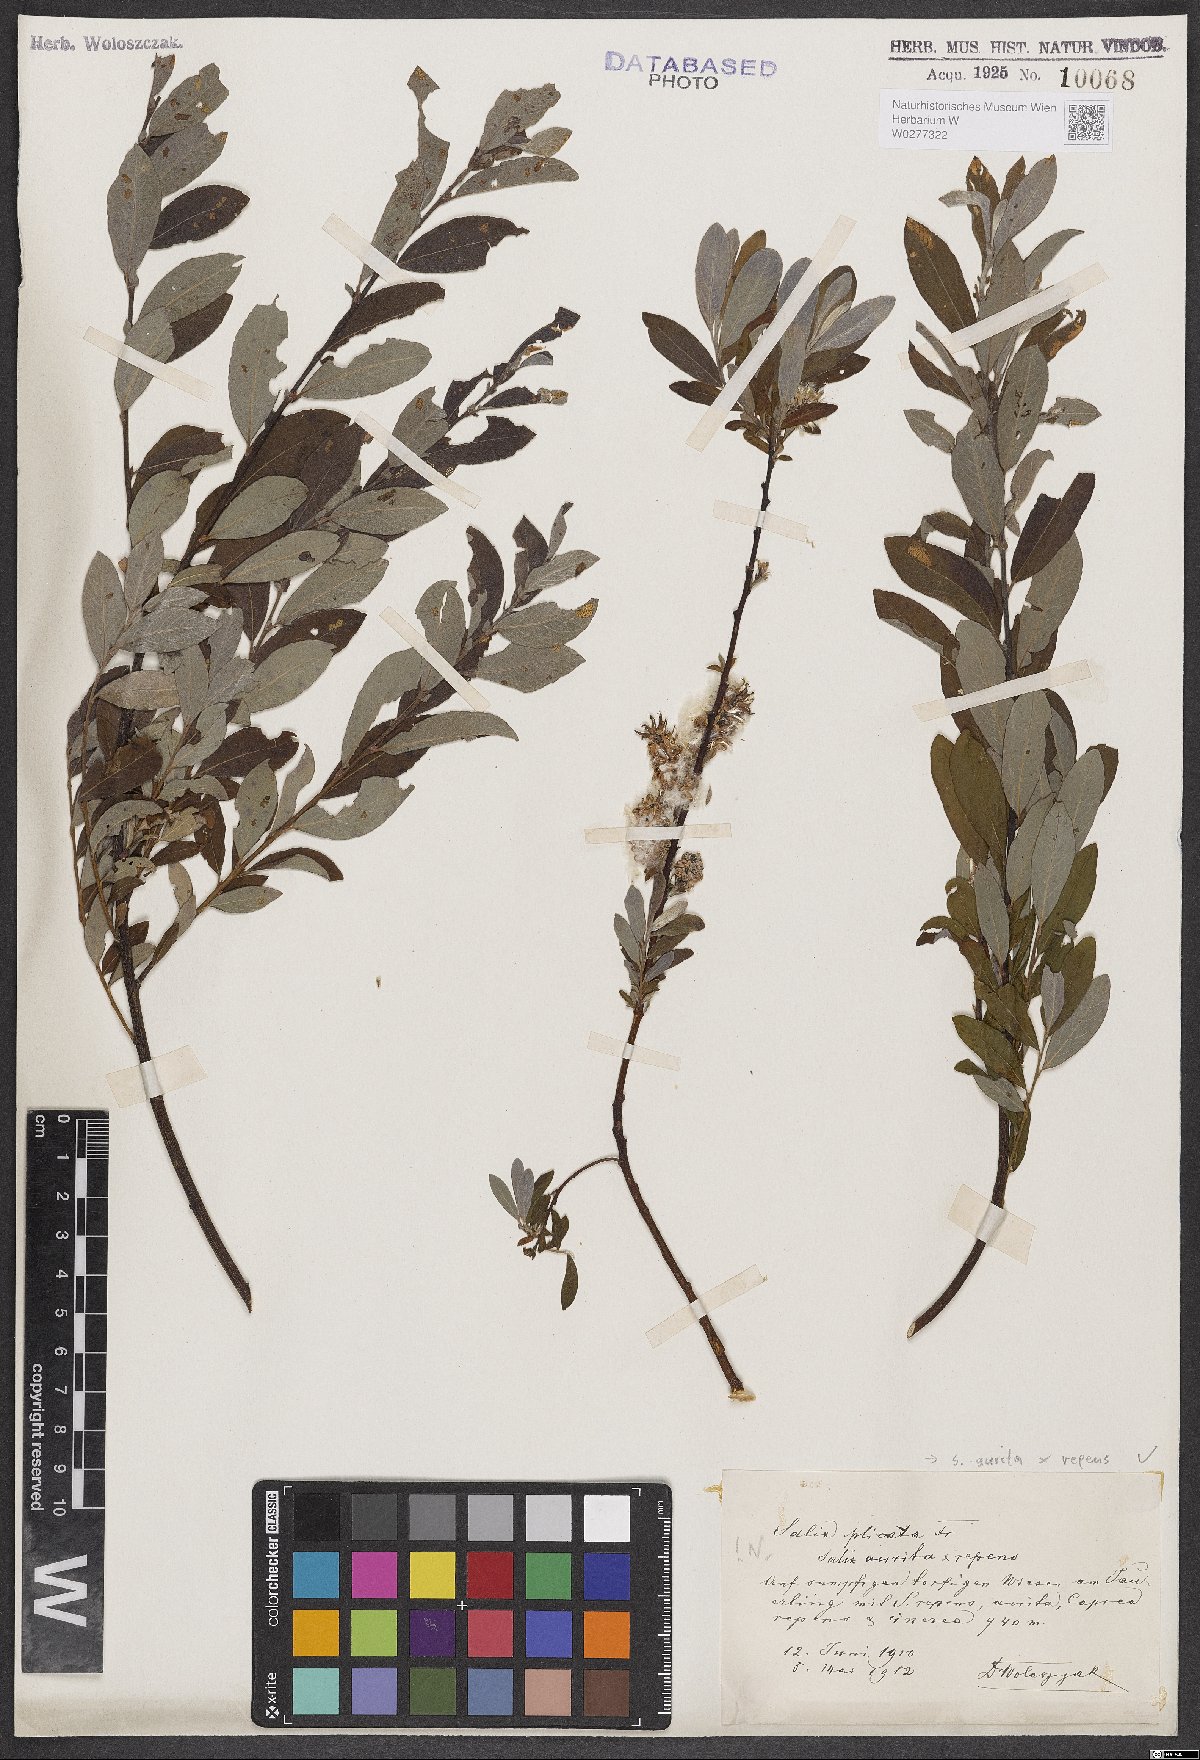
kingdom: Plantae
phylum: Tracheophyta
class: Magnoliopsida
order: Malpighiales
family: Salicaceae
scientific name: Salicaceae
